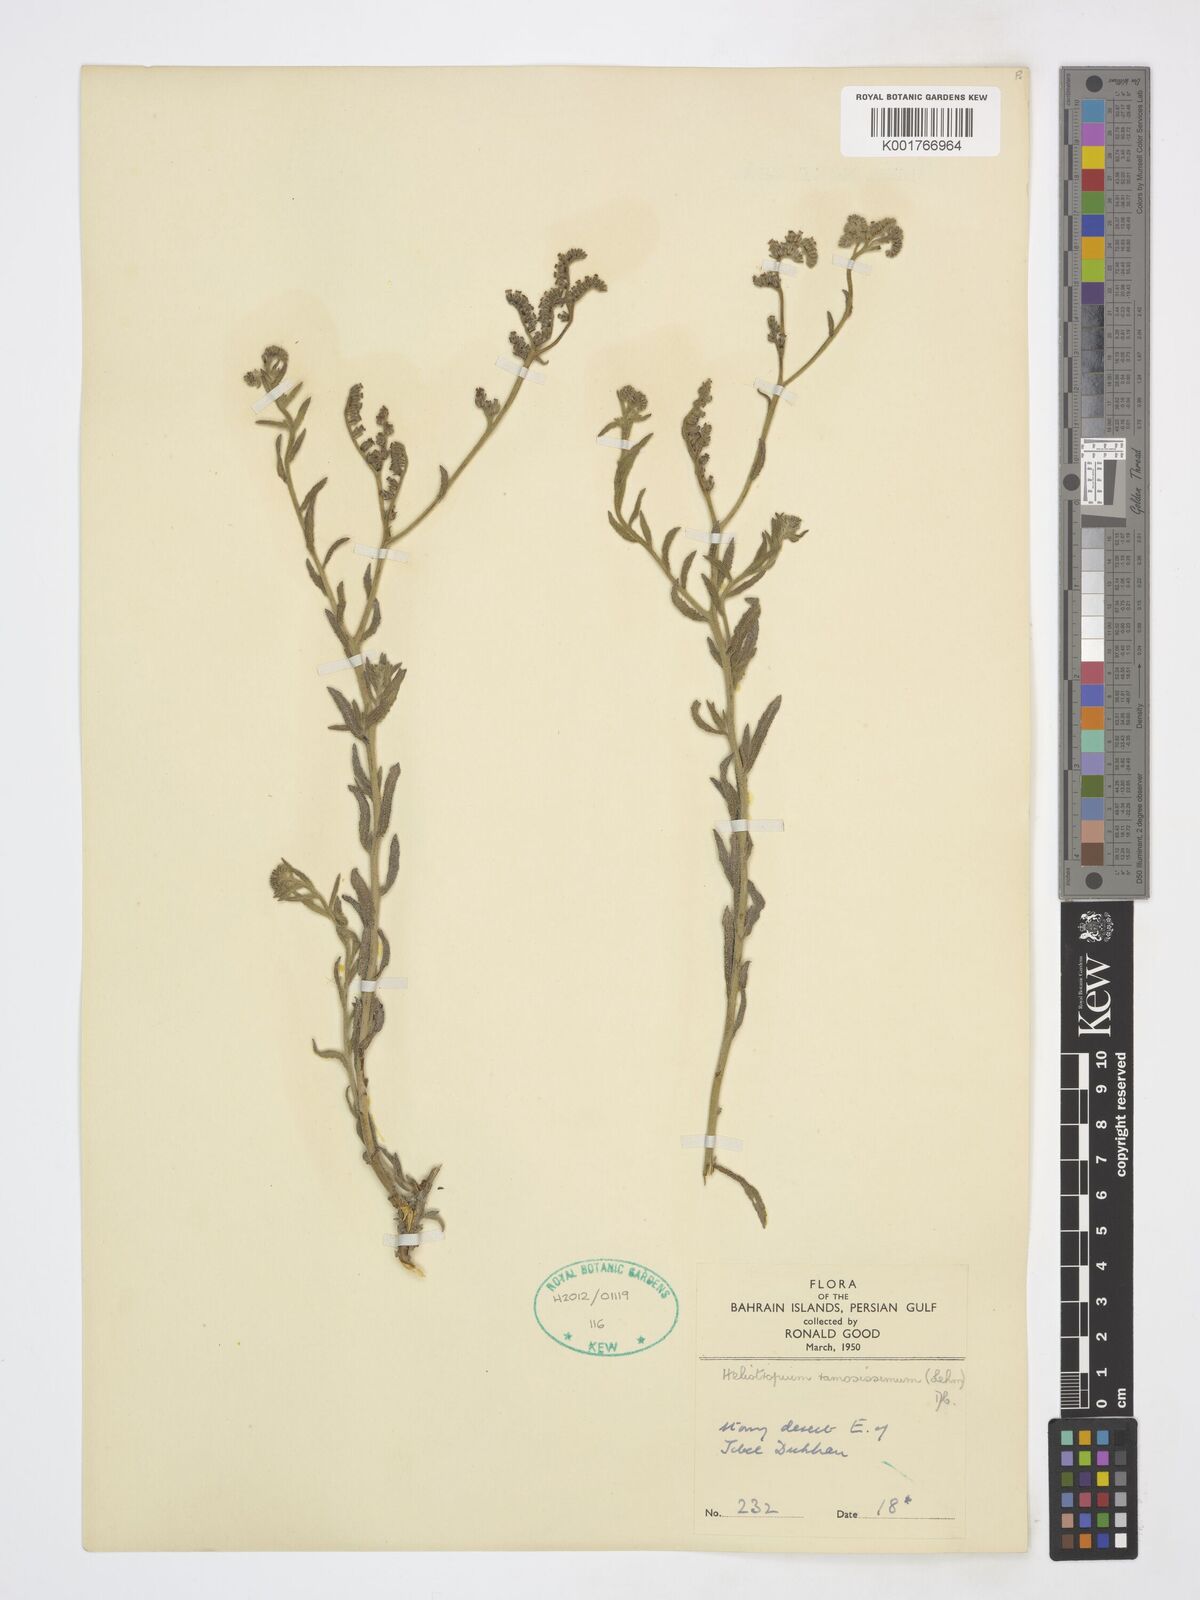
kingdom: Plantae
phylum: Tracheophyta
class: Magnoliopsida
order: Boraginales
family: Heliotropiaceae
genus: Heliotropium
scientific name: Heliotropium ramosissimum
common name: Wavy heliotrope
